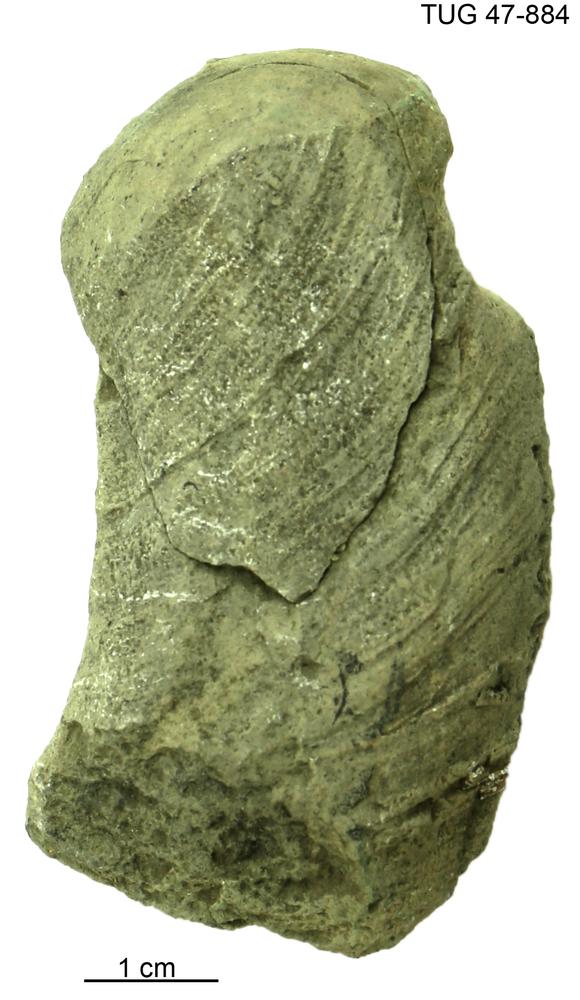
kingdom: Animalia
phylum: Mollusca
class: Cephalopoda
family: Trocholitidae
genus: Discoceras
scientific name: Discoceras
